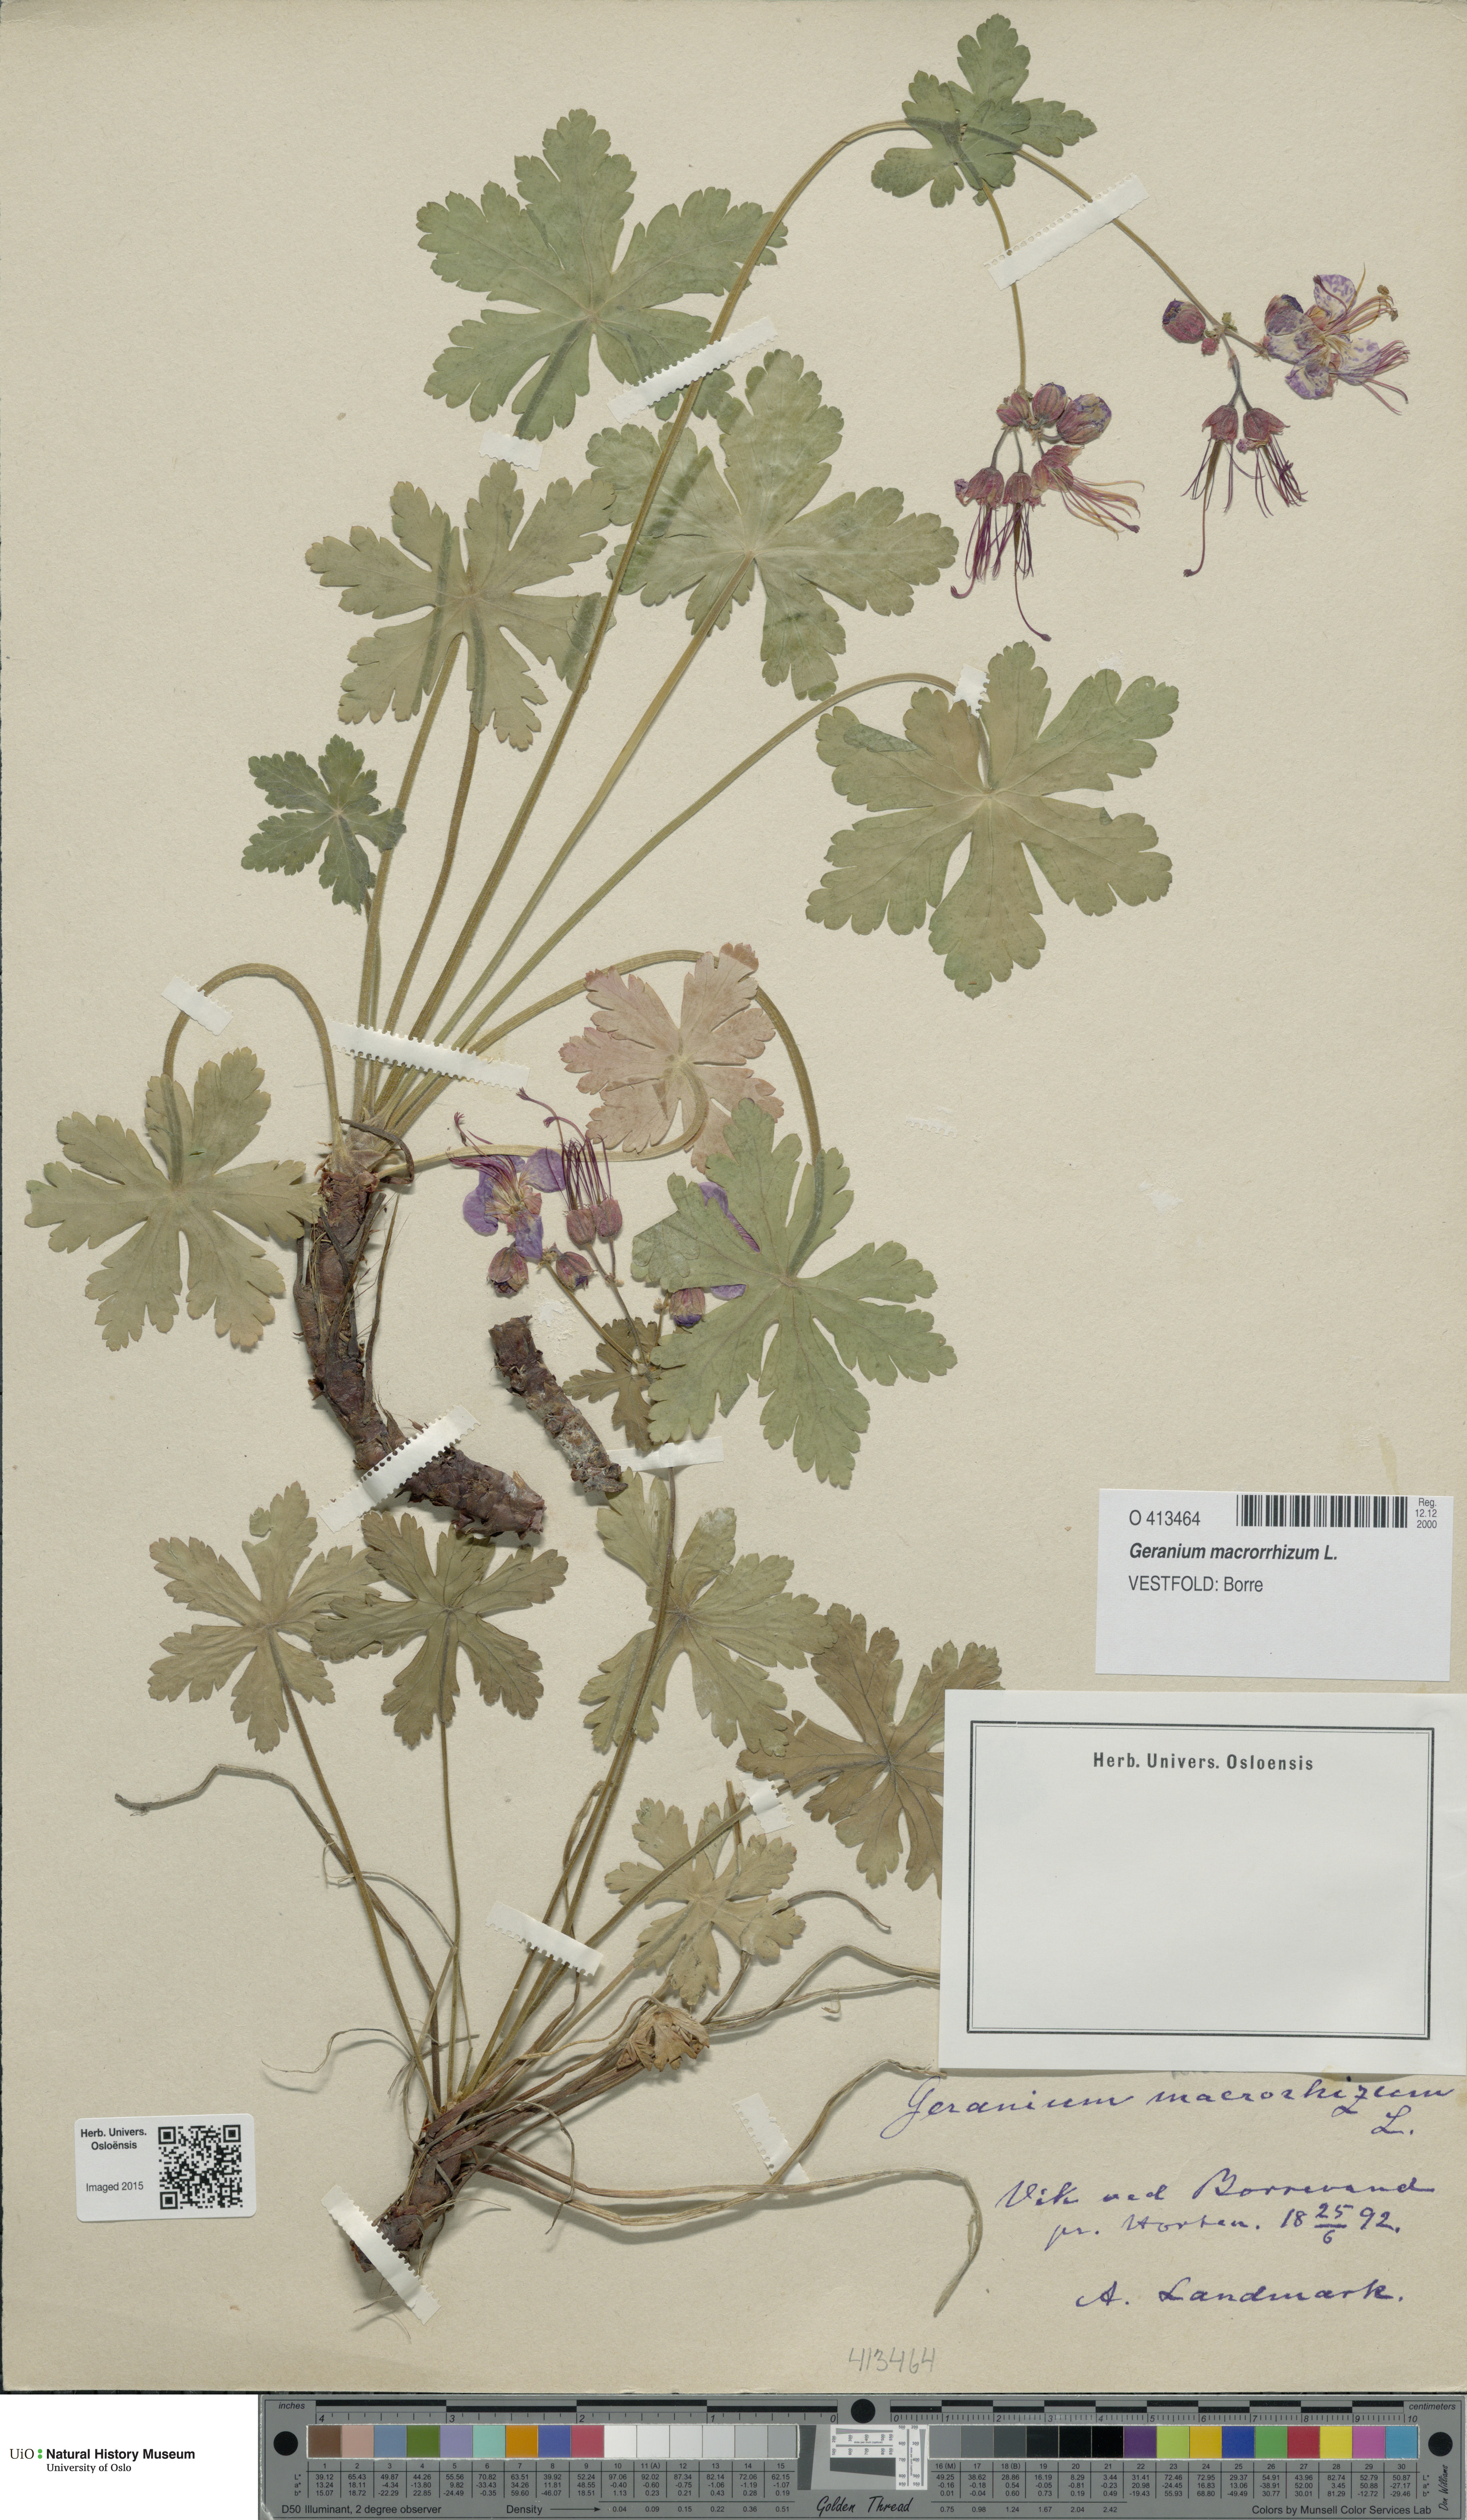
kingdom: Plantae
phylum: Tracheophyta
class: Magnoliopsida
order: Geraniales
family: Geraniaceae
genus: Geranium
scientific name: Geranium macrorrhizum
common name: Rock crane's-bill
